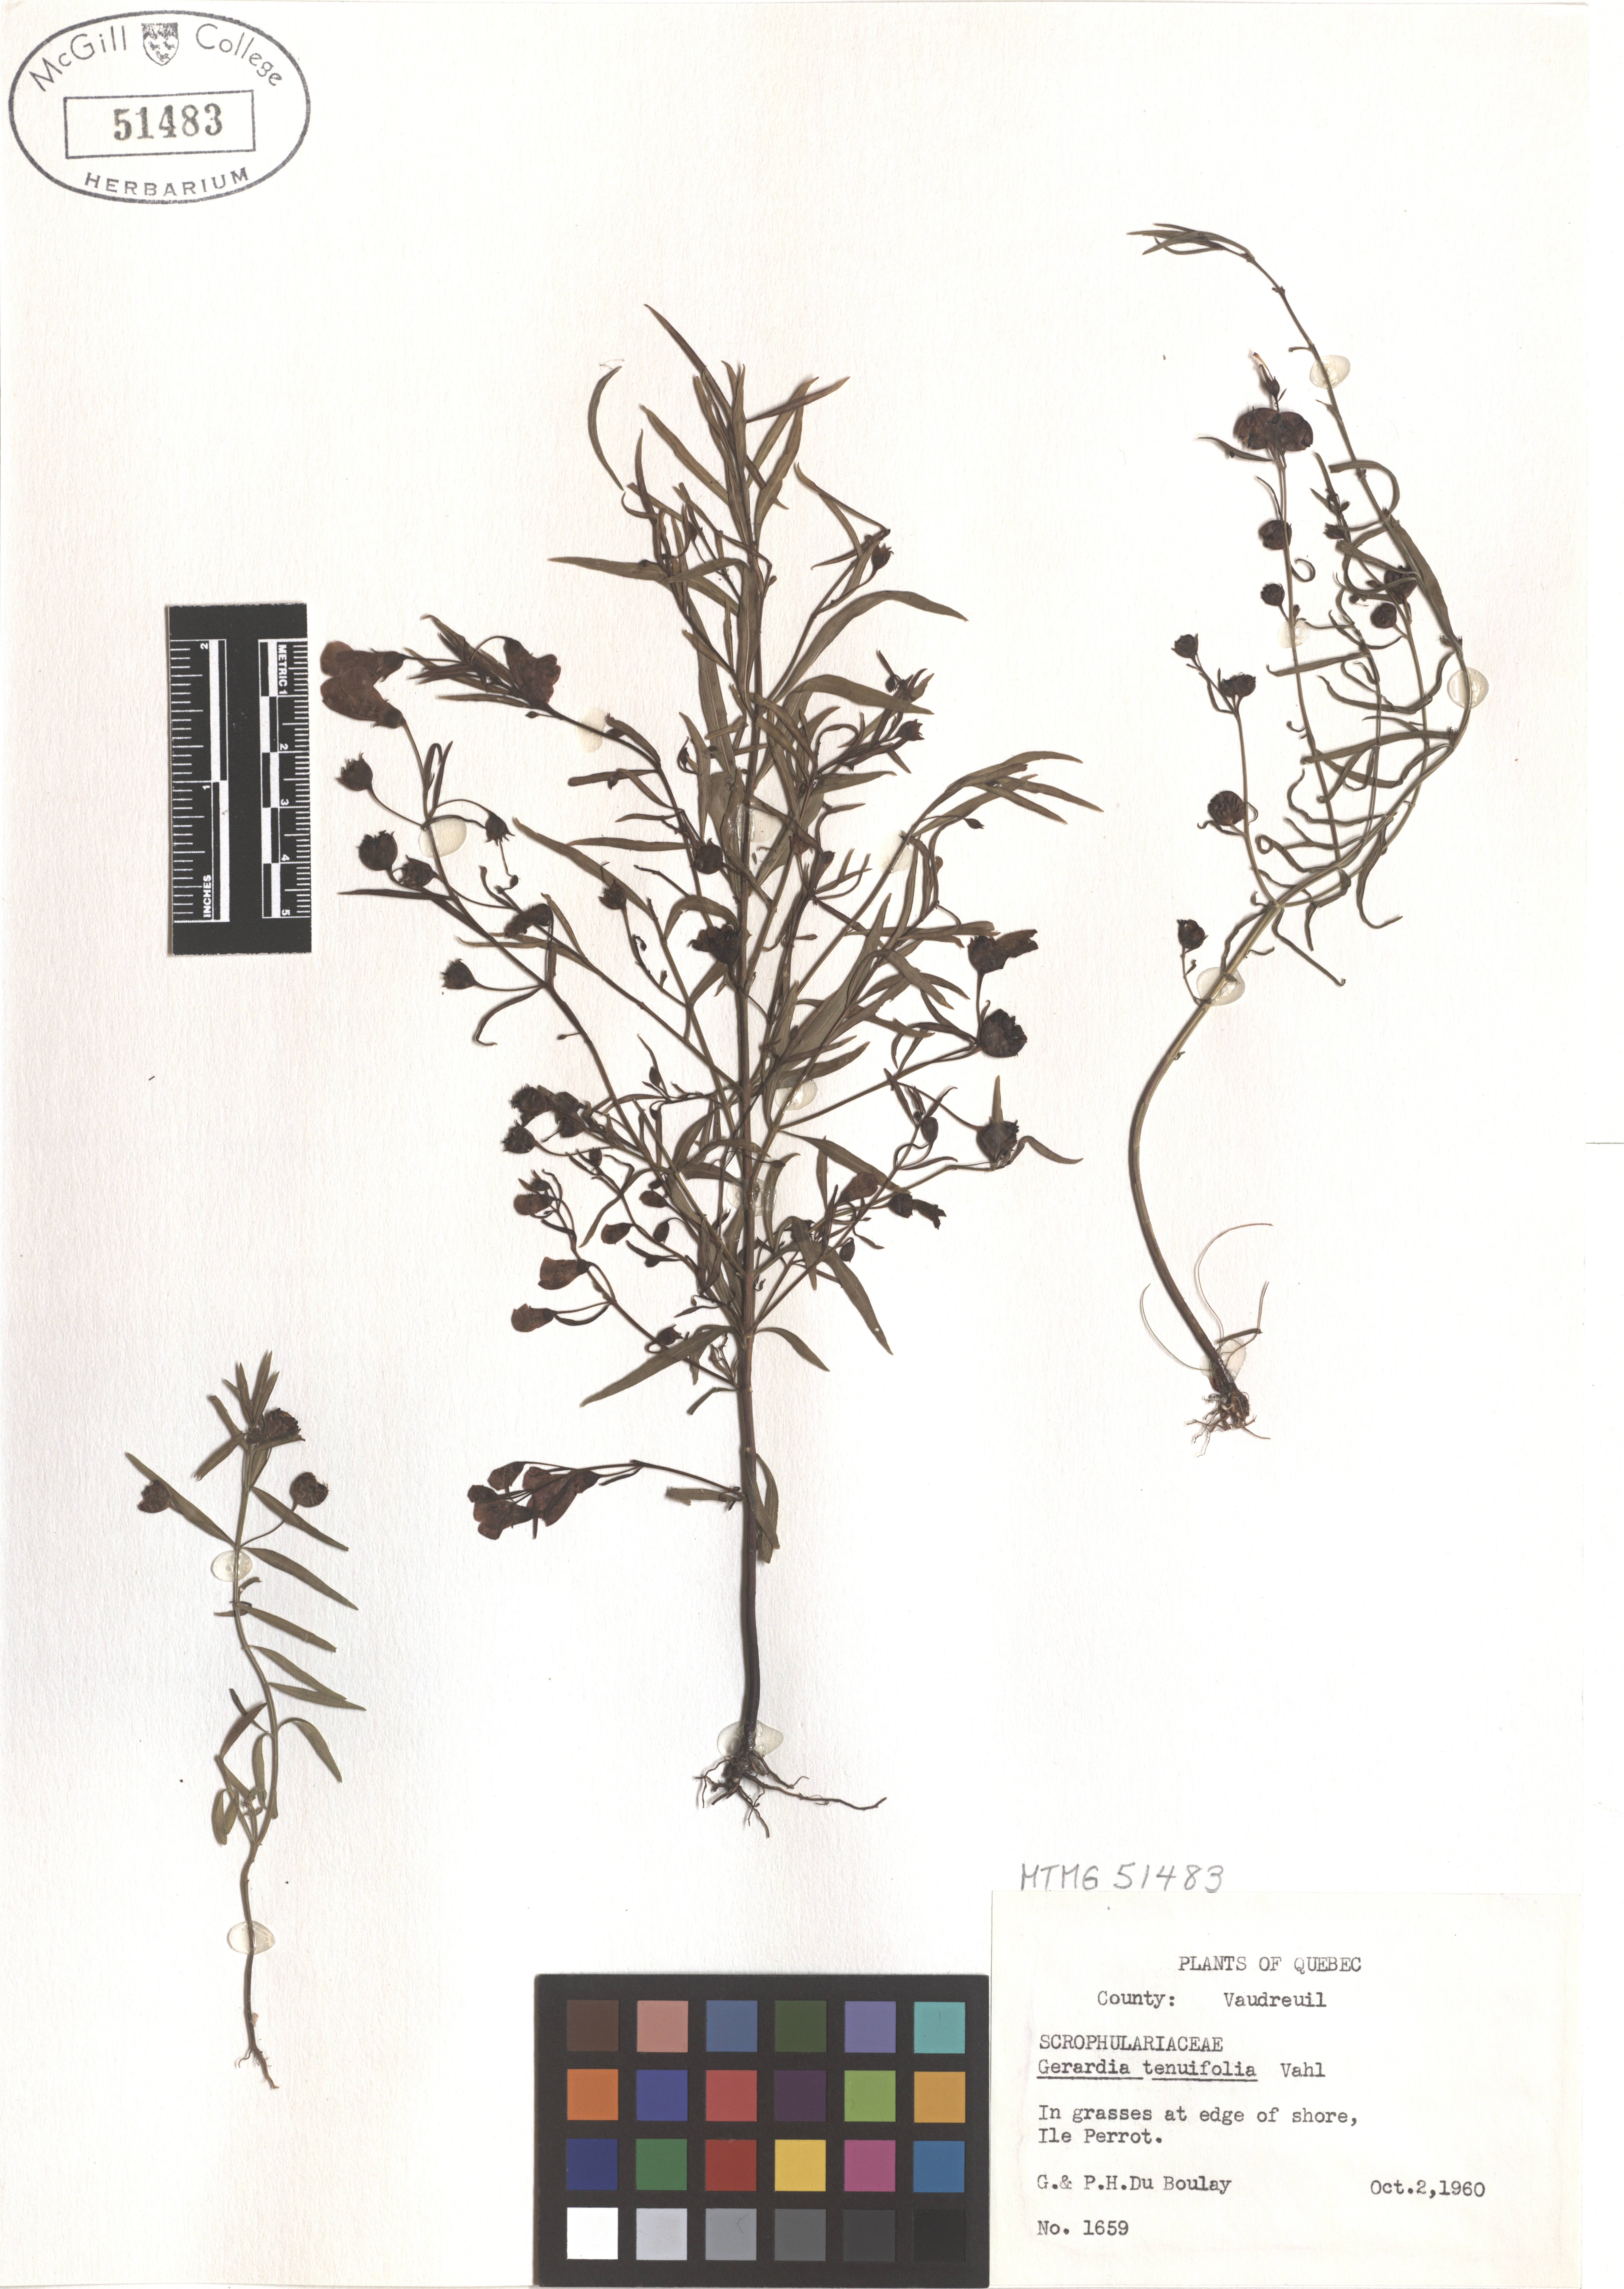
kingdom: Plantae
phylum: Tracheophyta
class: Magnoliopsida
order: Lamiales
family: Orobanchaceae
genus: Agalinis
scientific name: Agalinis tenuifolia
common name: Slender agalinis
